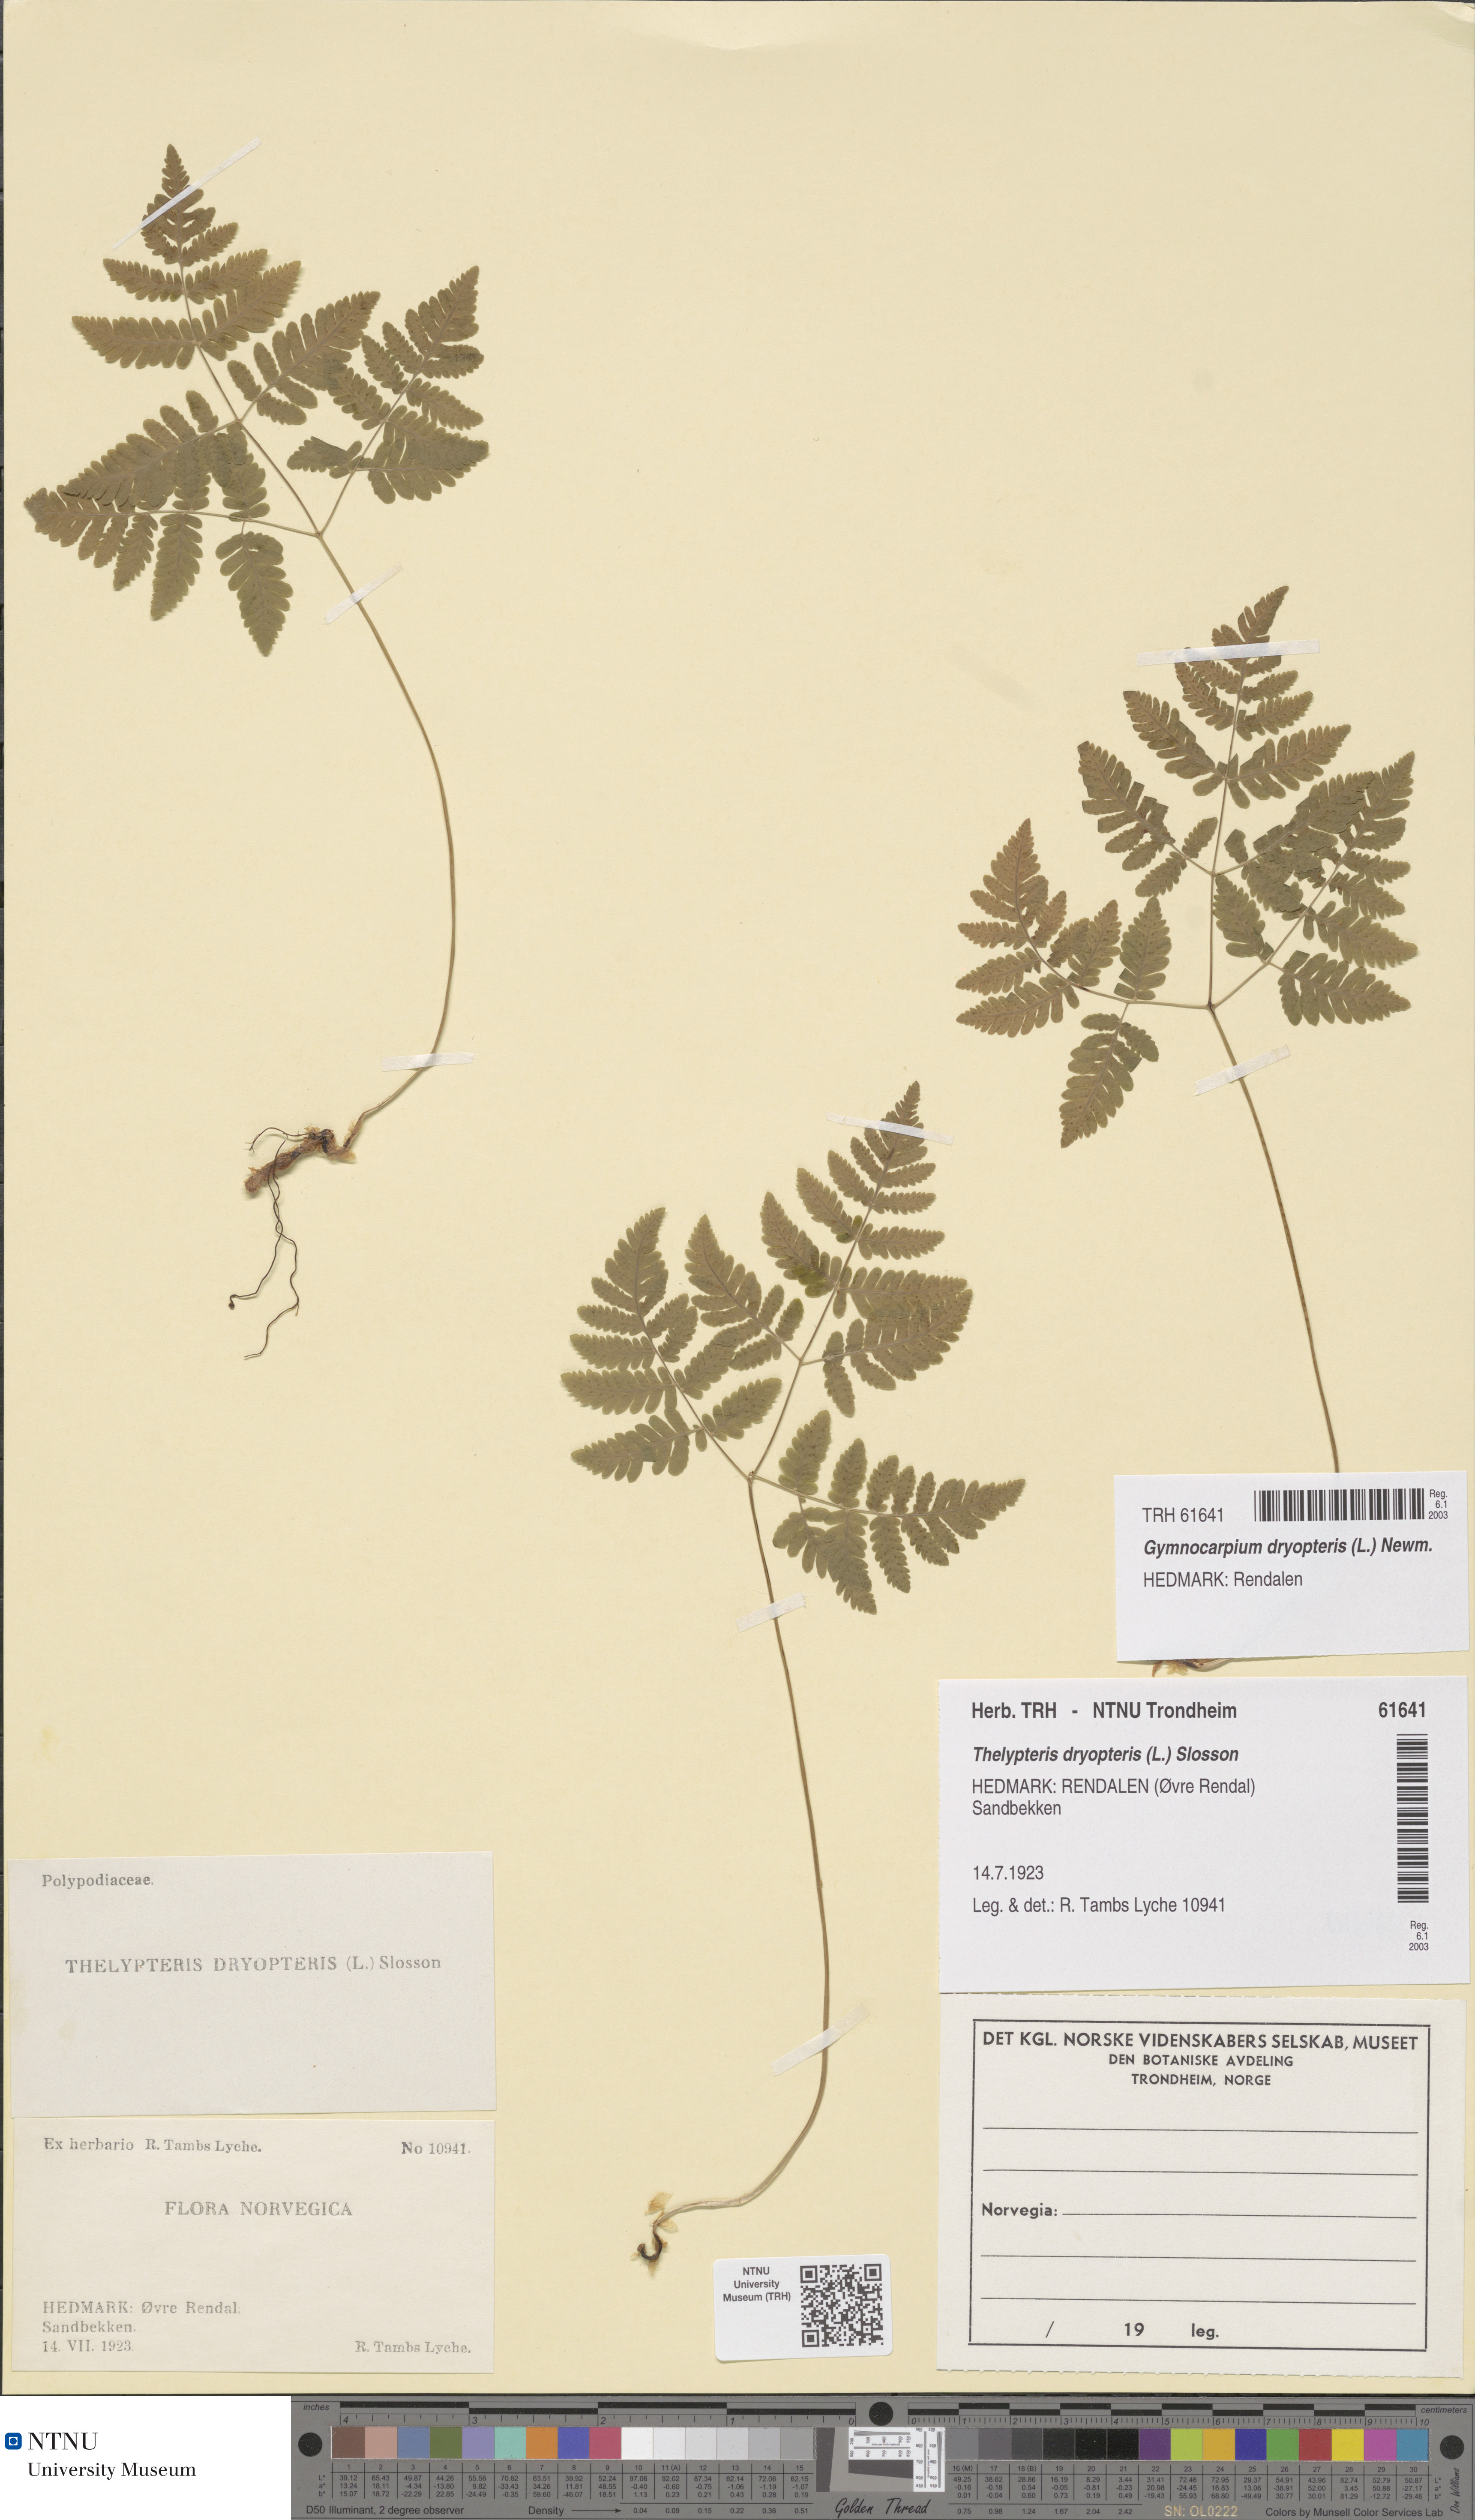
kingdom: Plantae
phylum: Tracheophyta
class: Polypodiopsida
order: Polypodiales
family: Cystopteridaceae
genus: Gymnocarpium
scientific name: Gymnocarpium dryopteris
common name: Oak fern
